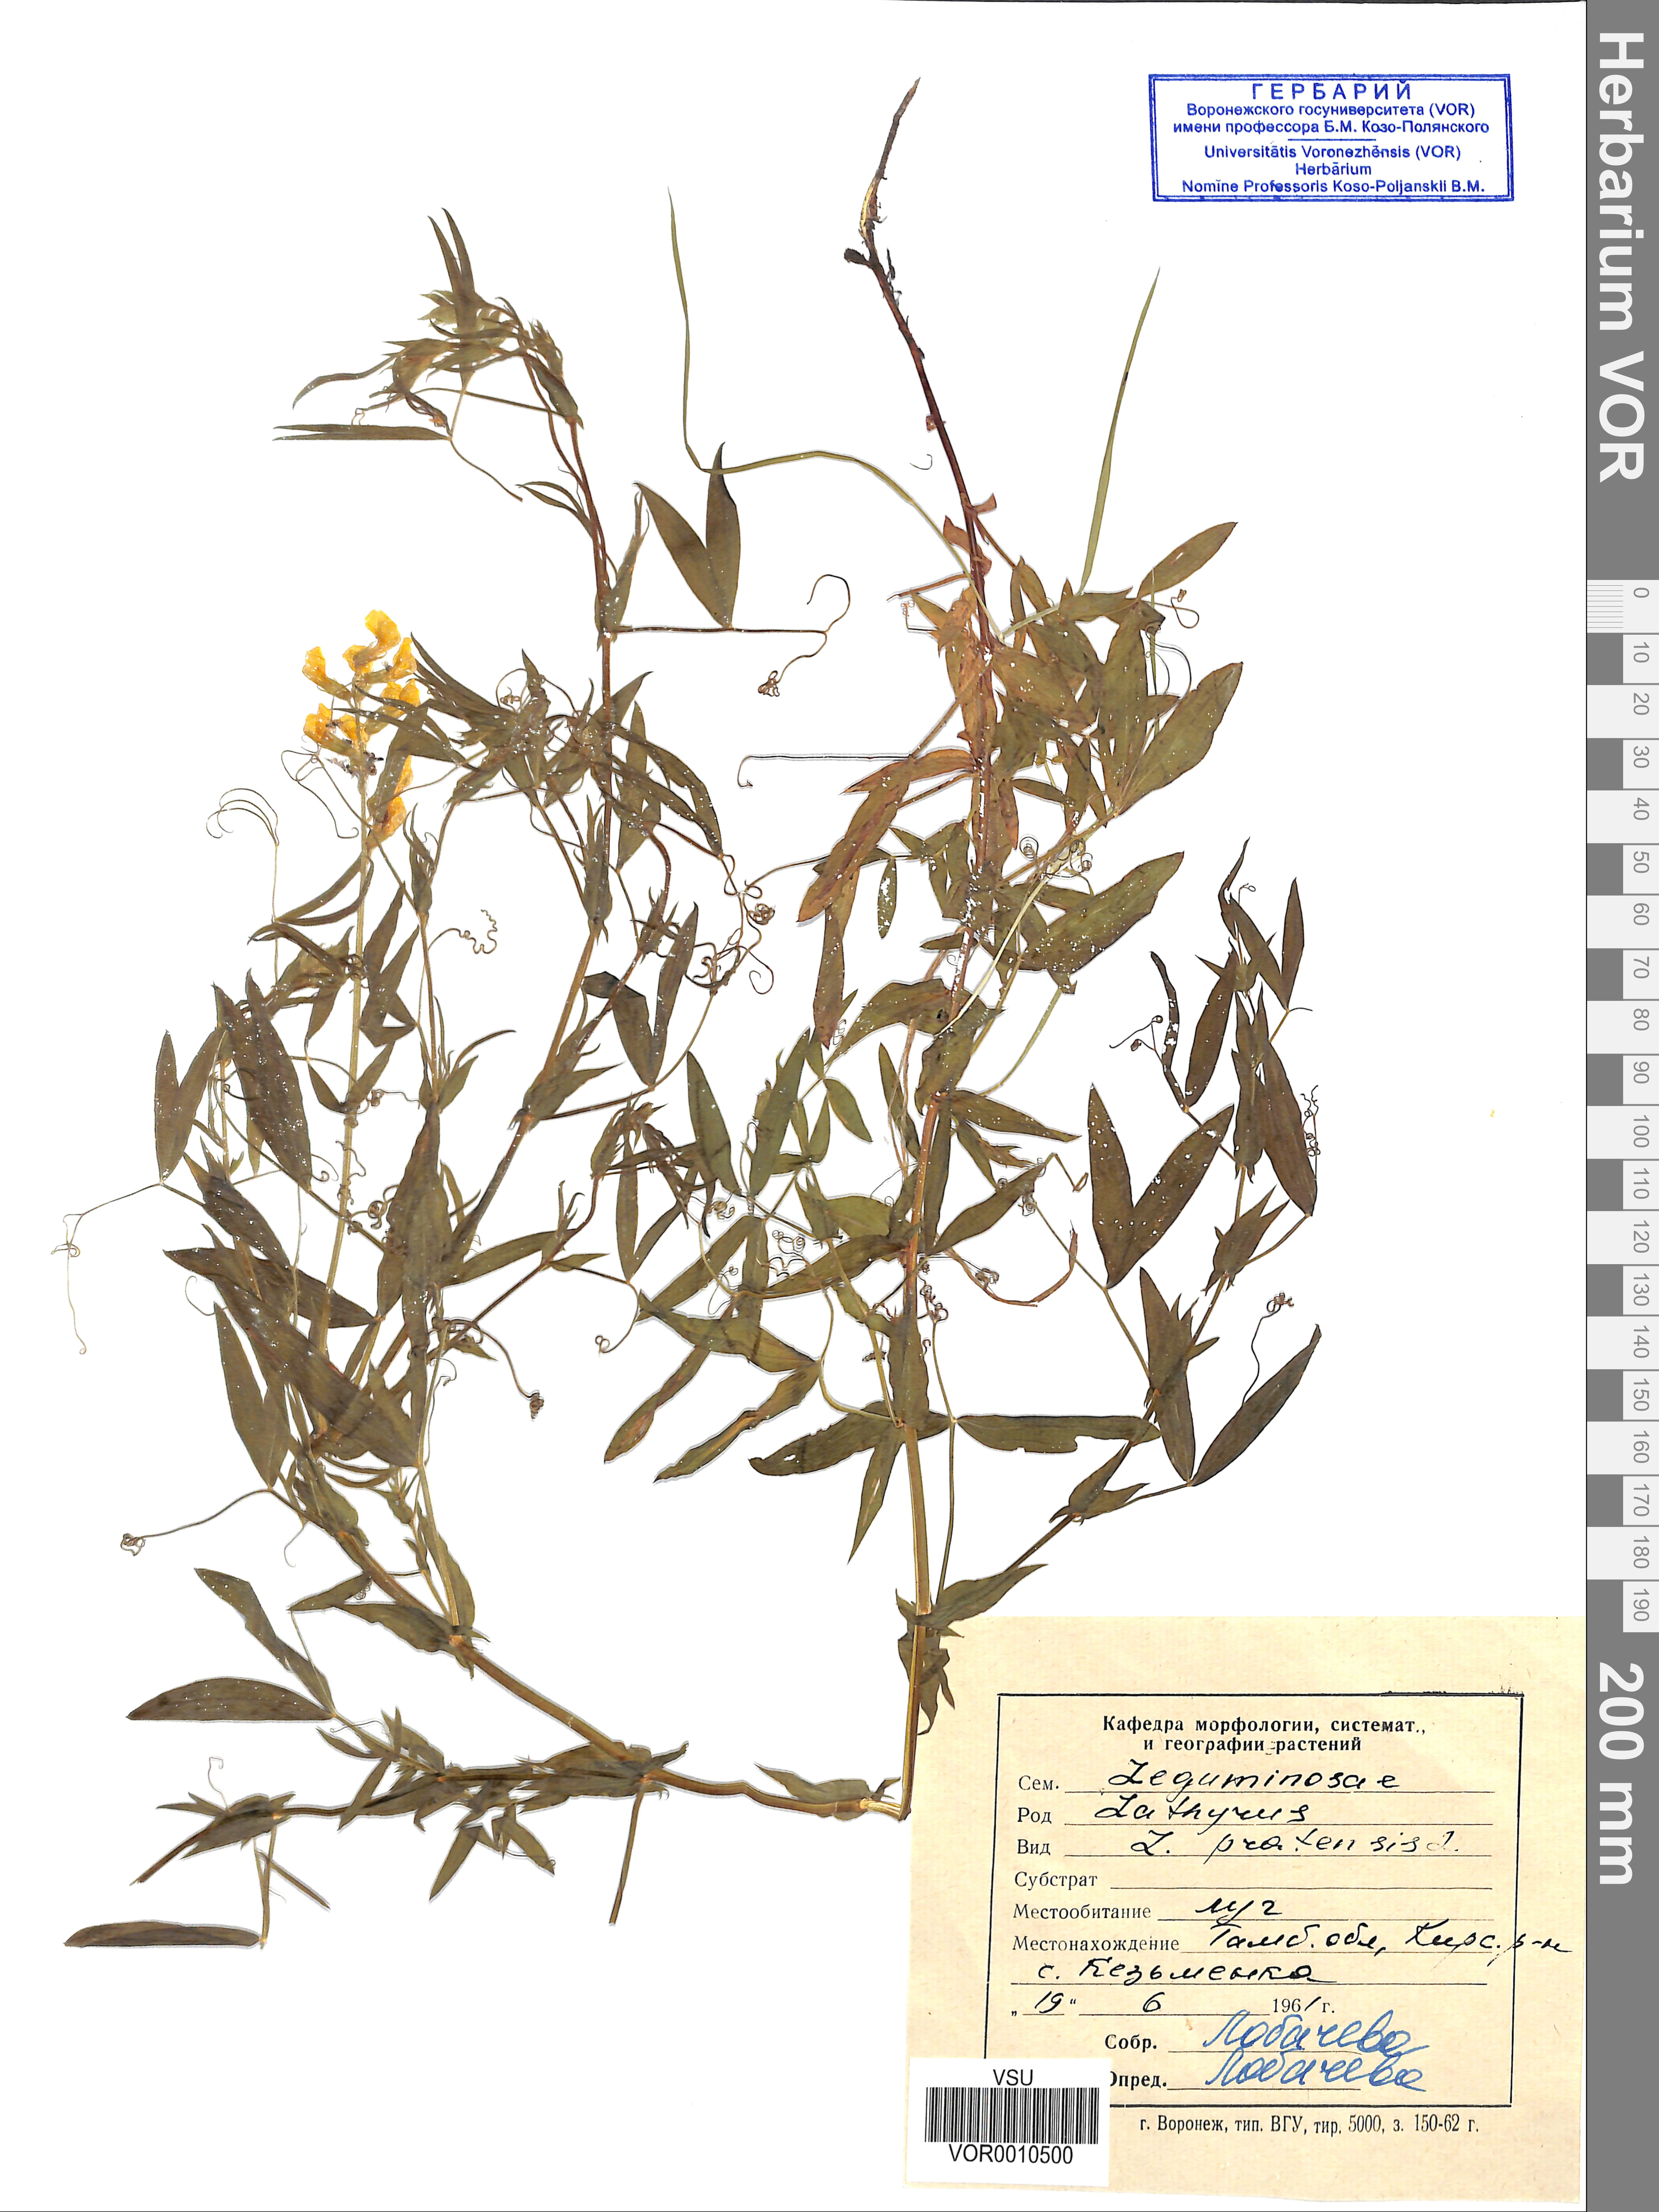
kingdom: Plantae
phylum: Tracheophyta
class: Magnoliopsida
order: Fabales
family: Fabaceae
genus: Lathyrus
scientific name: Lathyrus palustris
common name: Marsh pea
